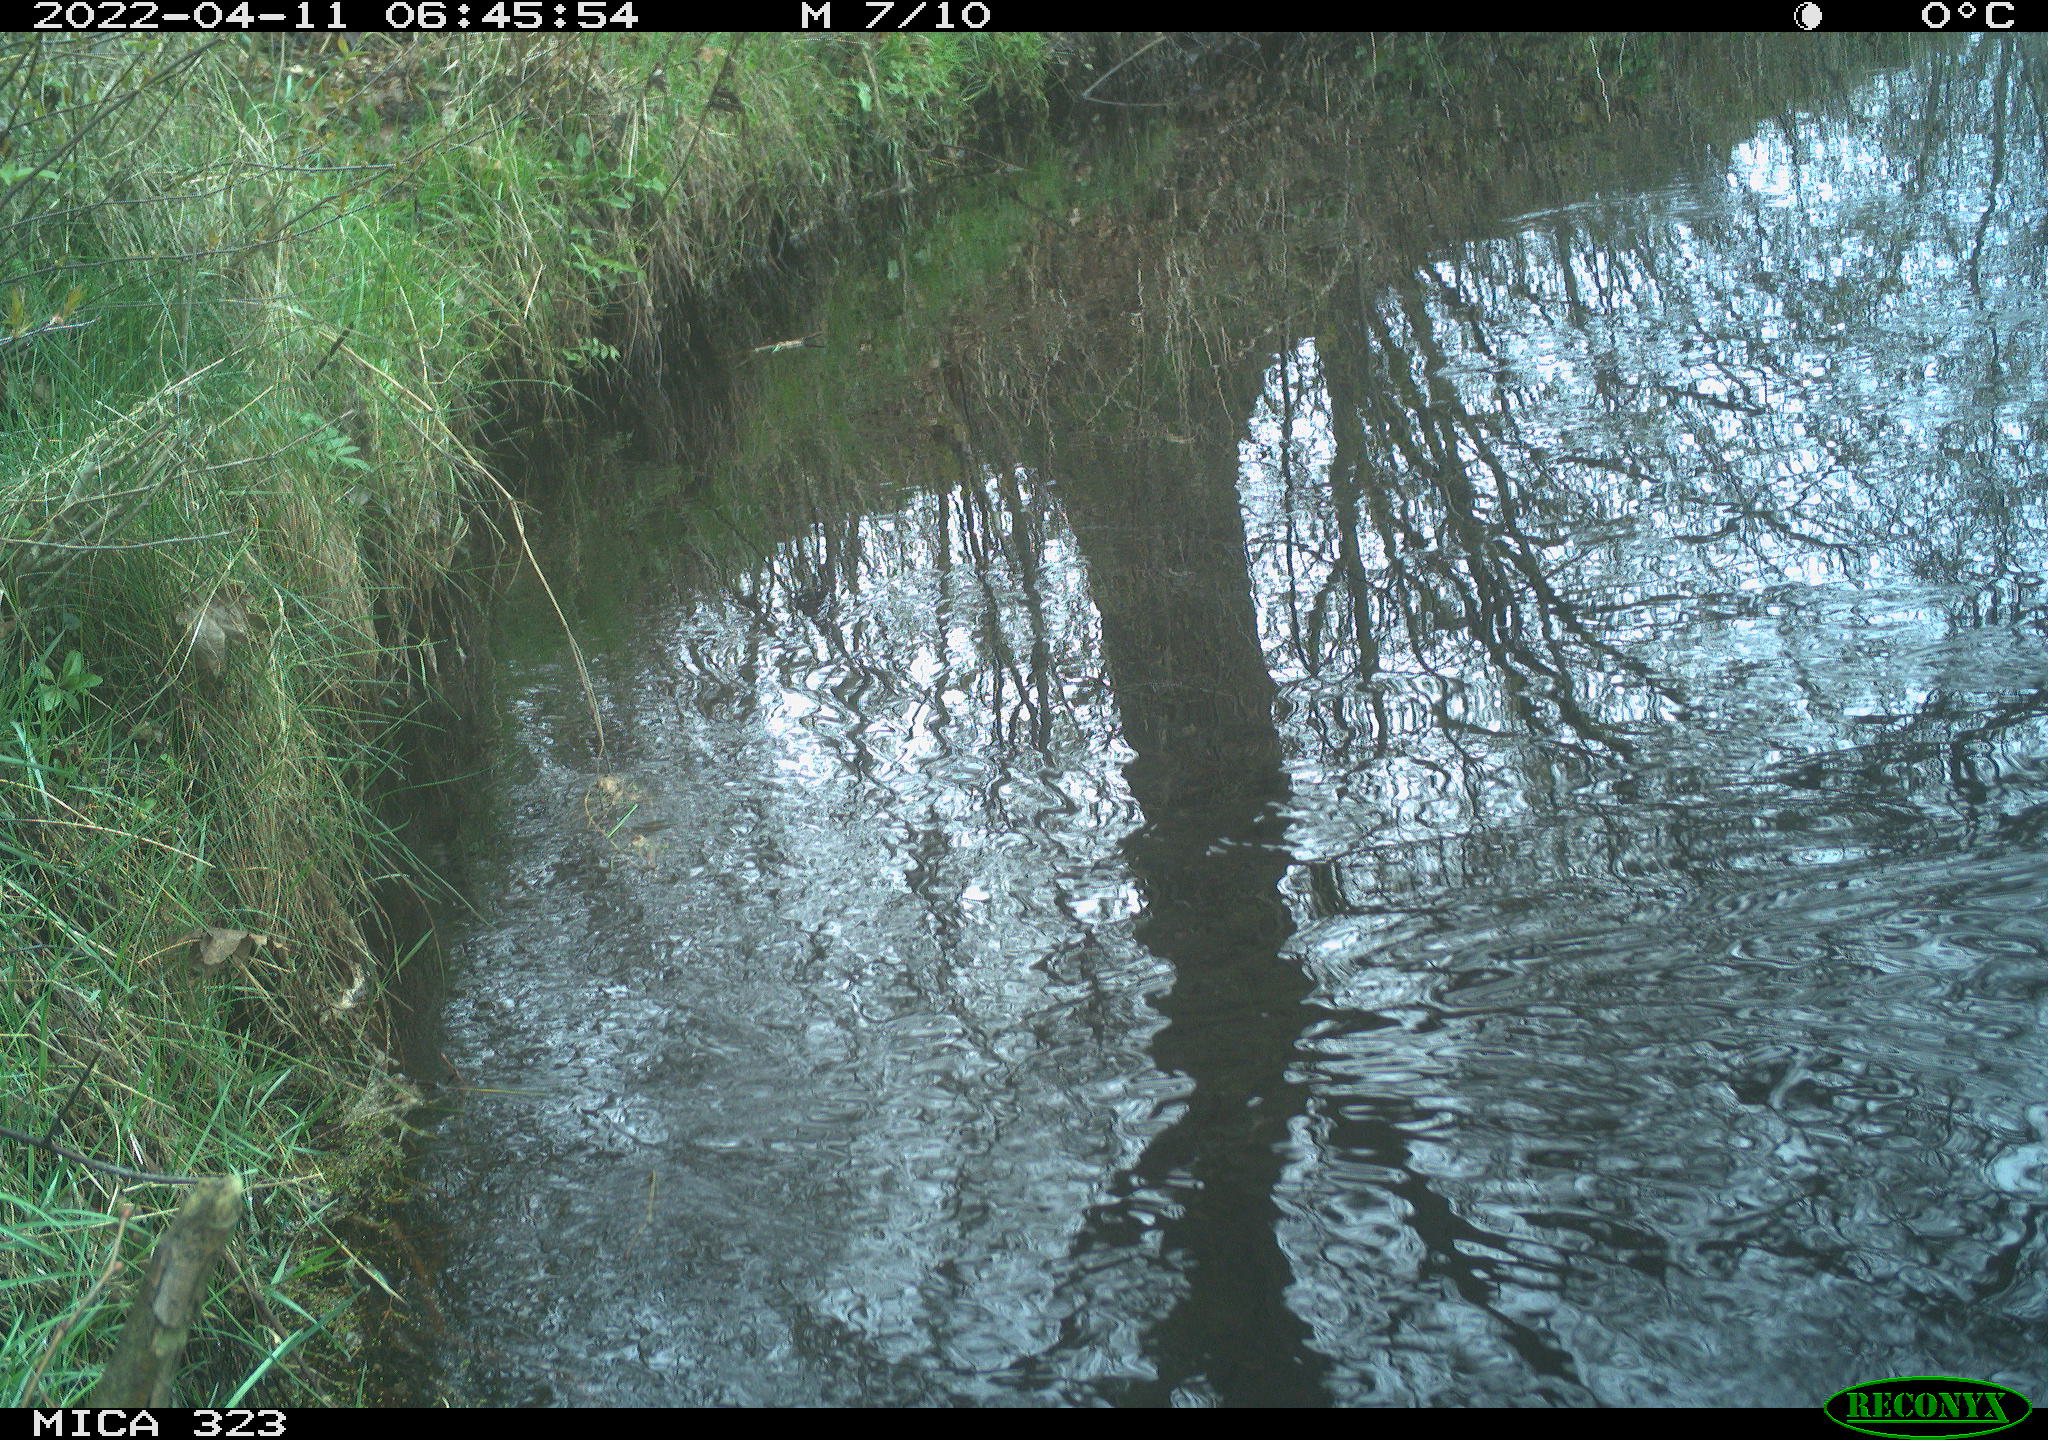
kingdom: Animalia
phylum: Chordata
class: Aves
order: Gruiformes
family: Rallidae
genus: Gallinula
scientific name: Gallinula chloropus
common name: Common moorhen
